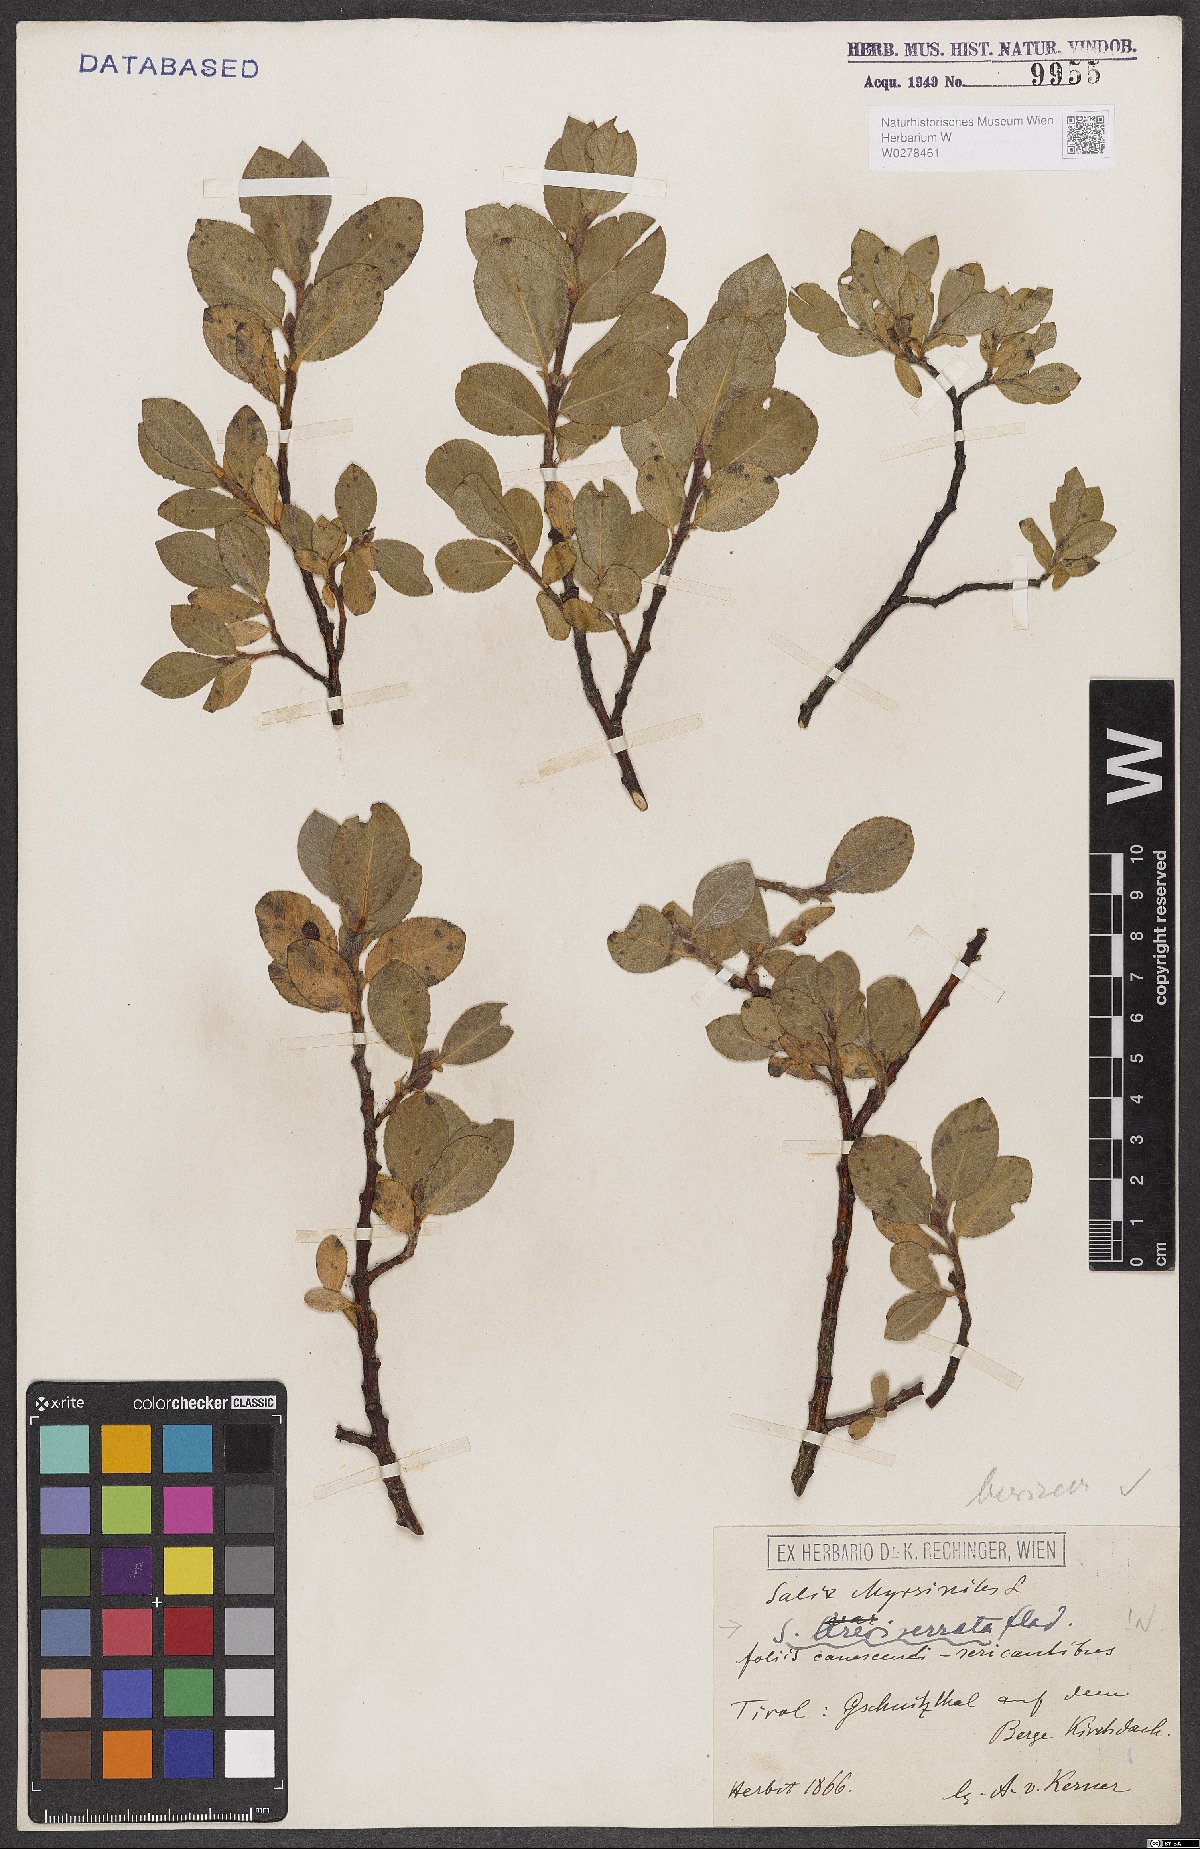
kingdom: Plantae
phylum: Tracheophyta
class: Magnoliopsida
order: Malpighiales
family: Salicaceae
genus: Salix
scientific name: Salix breviserrata
